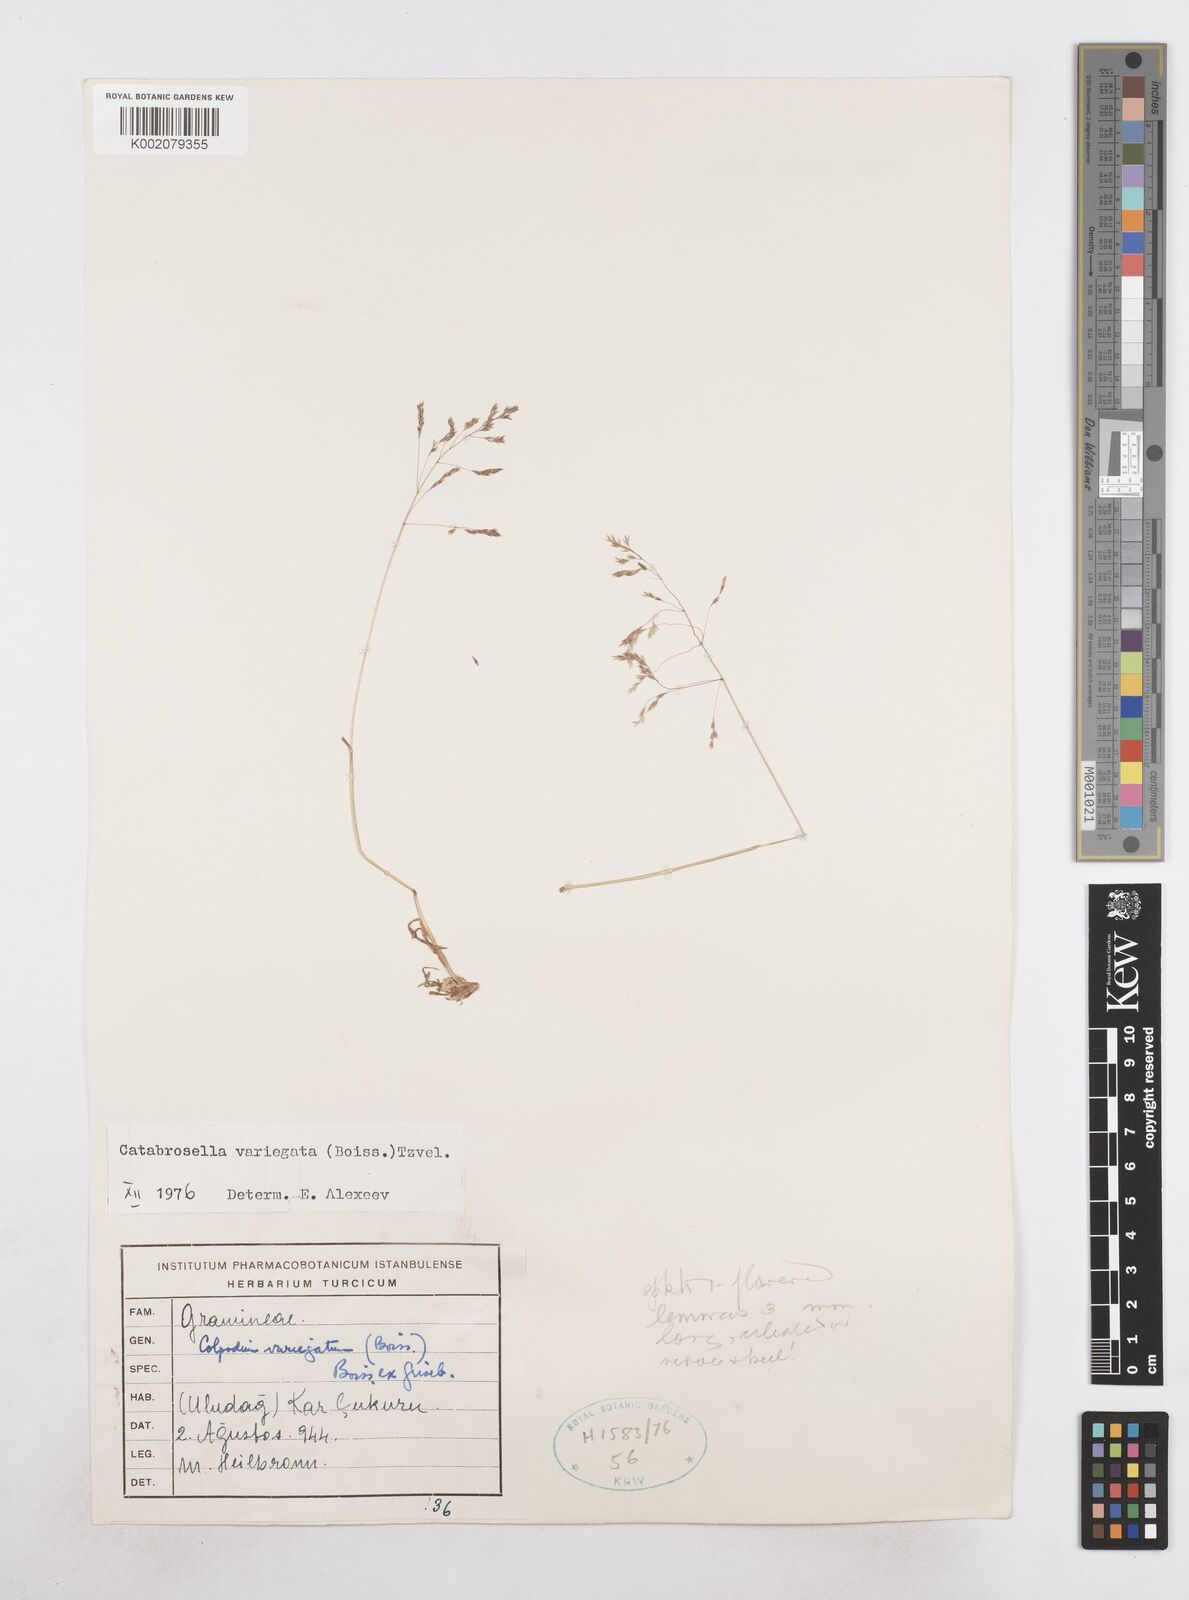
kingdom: Plantae
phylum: Tracheophyta
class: Liliopsida
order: Poales
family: Poaceae
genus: Catabrosella
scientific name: Catabrosella variegata
